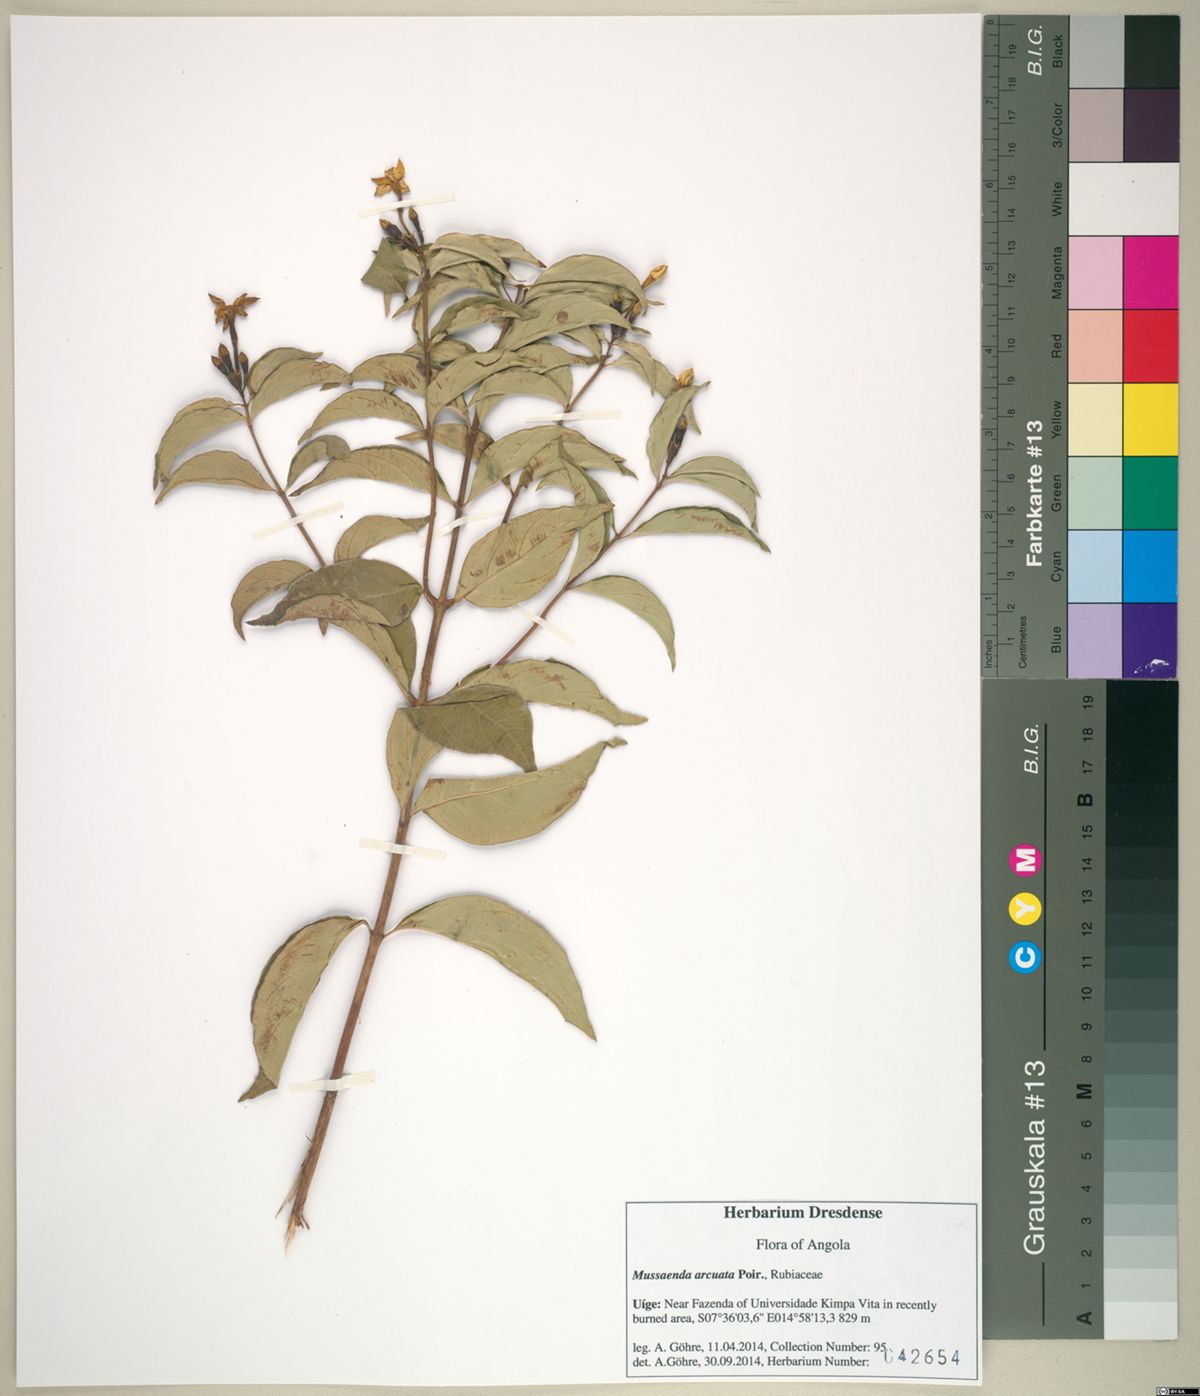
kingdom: Plantae
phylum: Tracheophyta
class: Magnoliopsida
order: Gentianales
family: Rubiaceae
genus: Mussaenda
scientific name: Mussaenda arcuata
